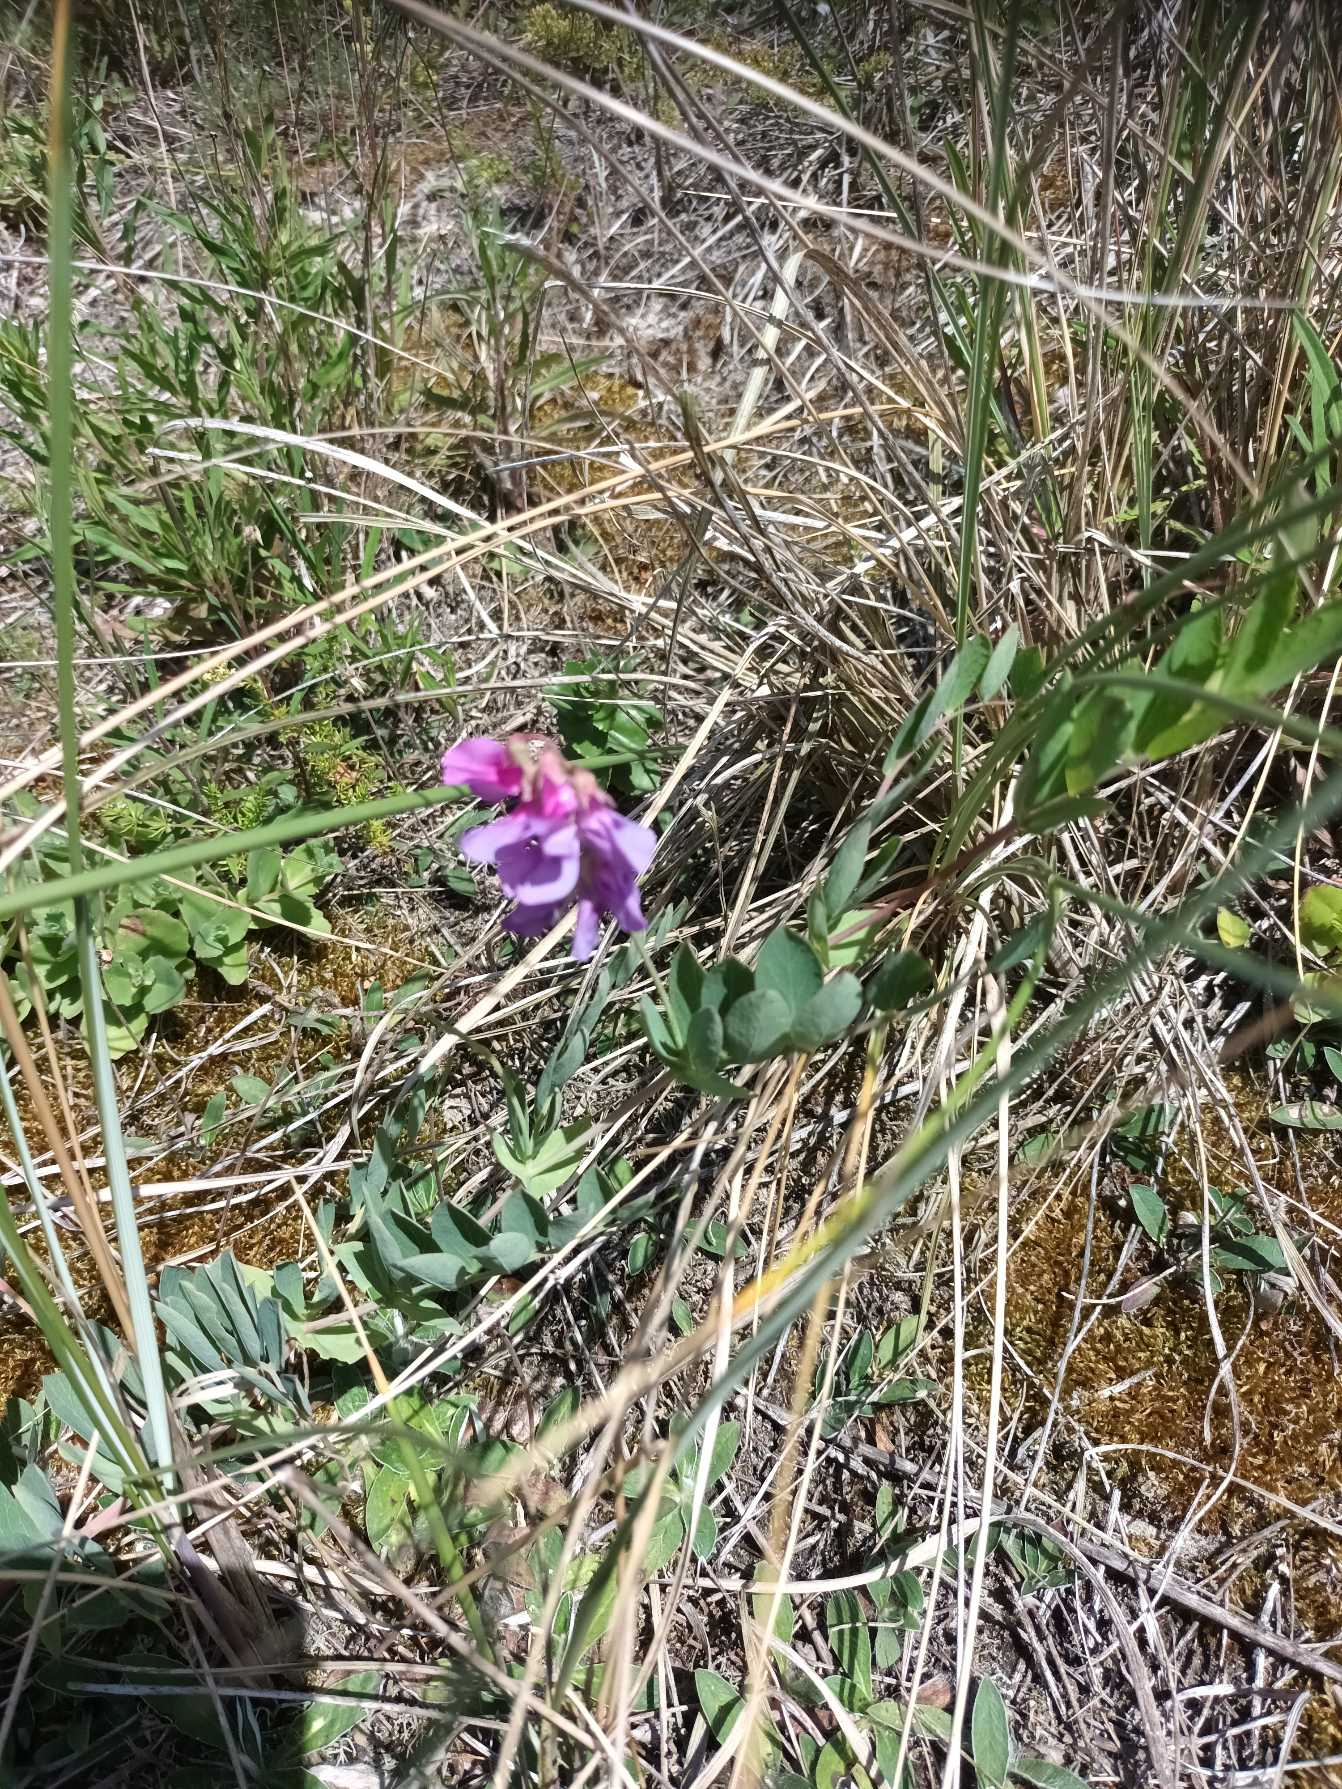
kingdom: Plantae
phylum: Tracheophyta
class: Magnoliopsida
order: Fabales
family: Fabaceae
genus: Lathyrus
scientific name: Lathyrus japonicus
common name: Strand-fladbælg
